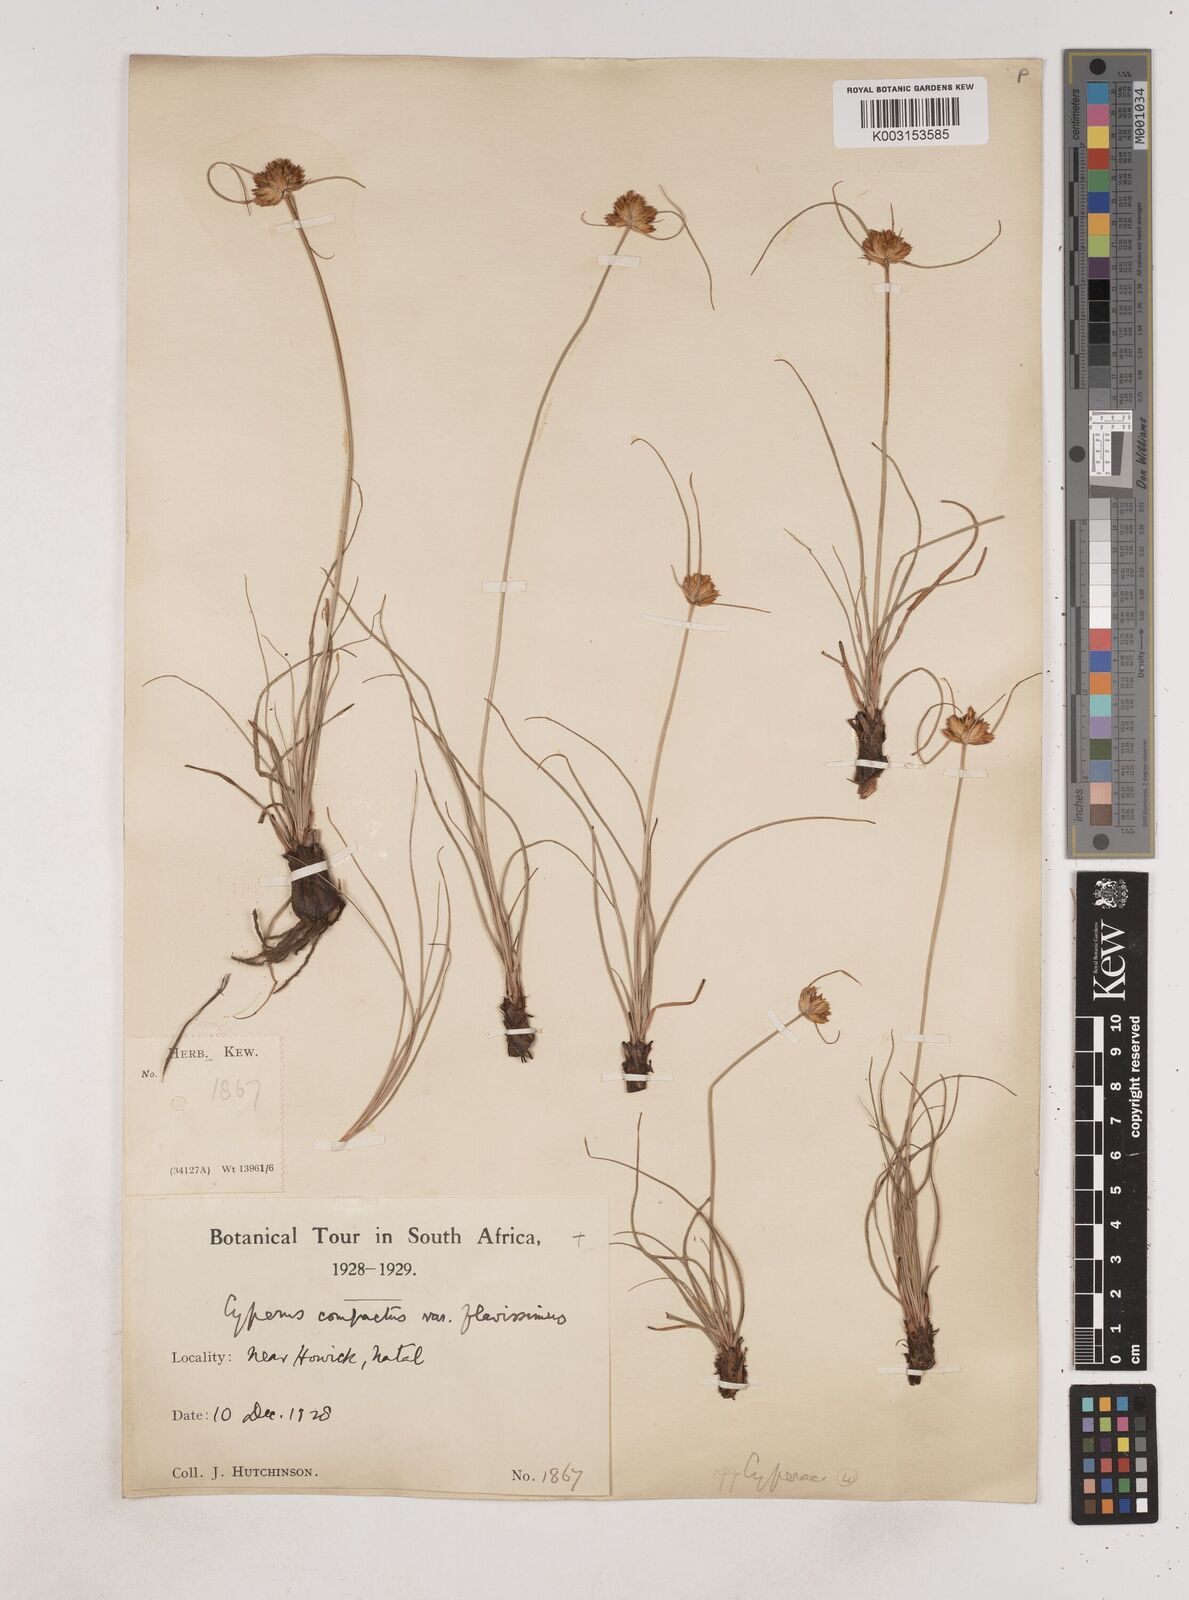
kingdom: Plantae
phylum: Tracheophyta
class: Liliopsida
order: Poales
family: Cyperaceae
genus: Cyperus
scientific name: Cyperus niveus
